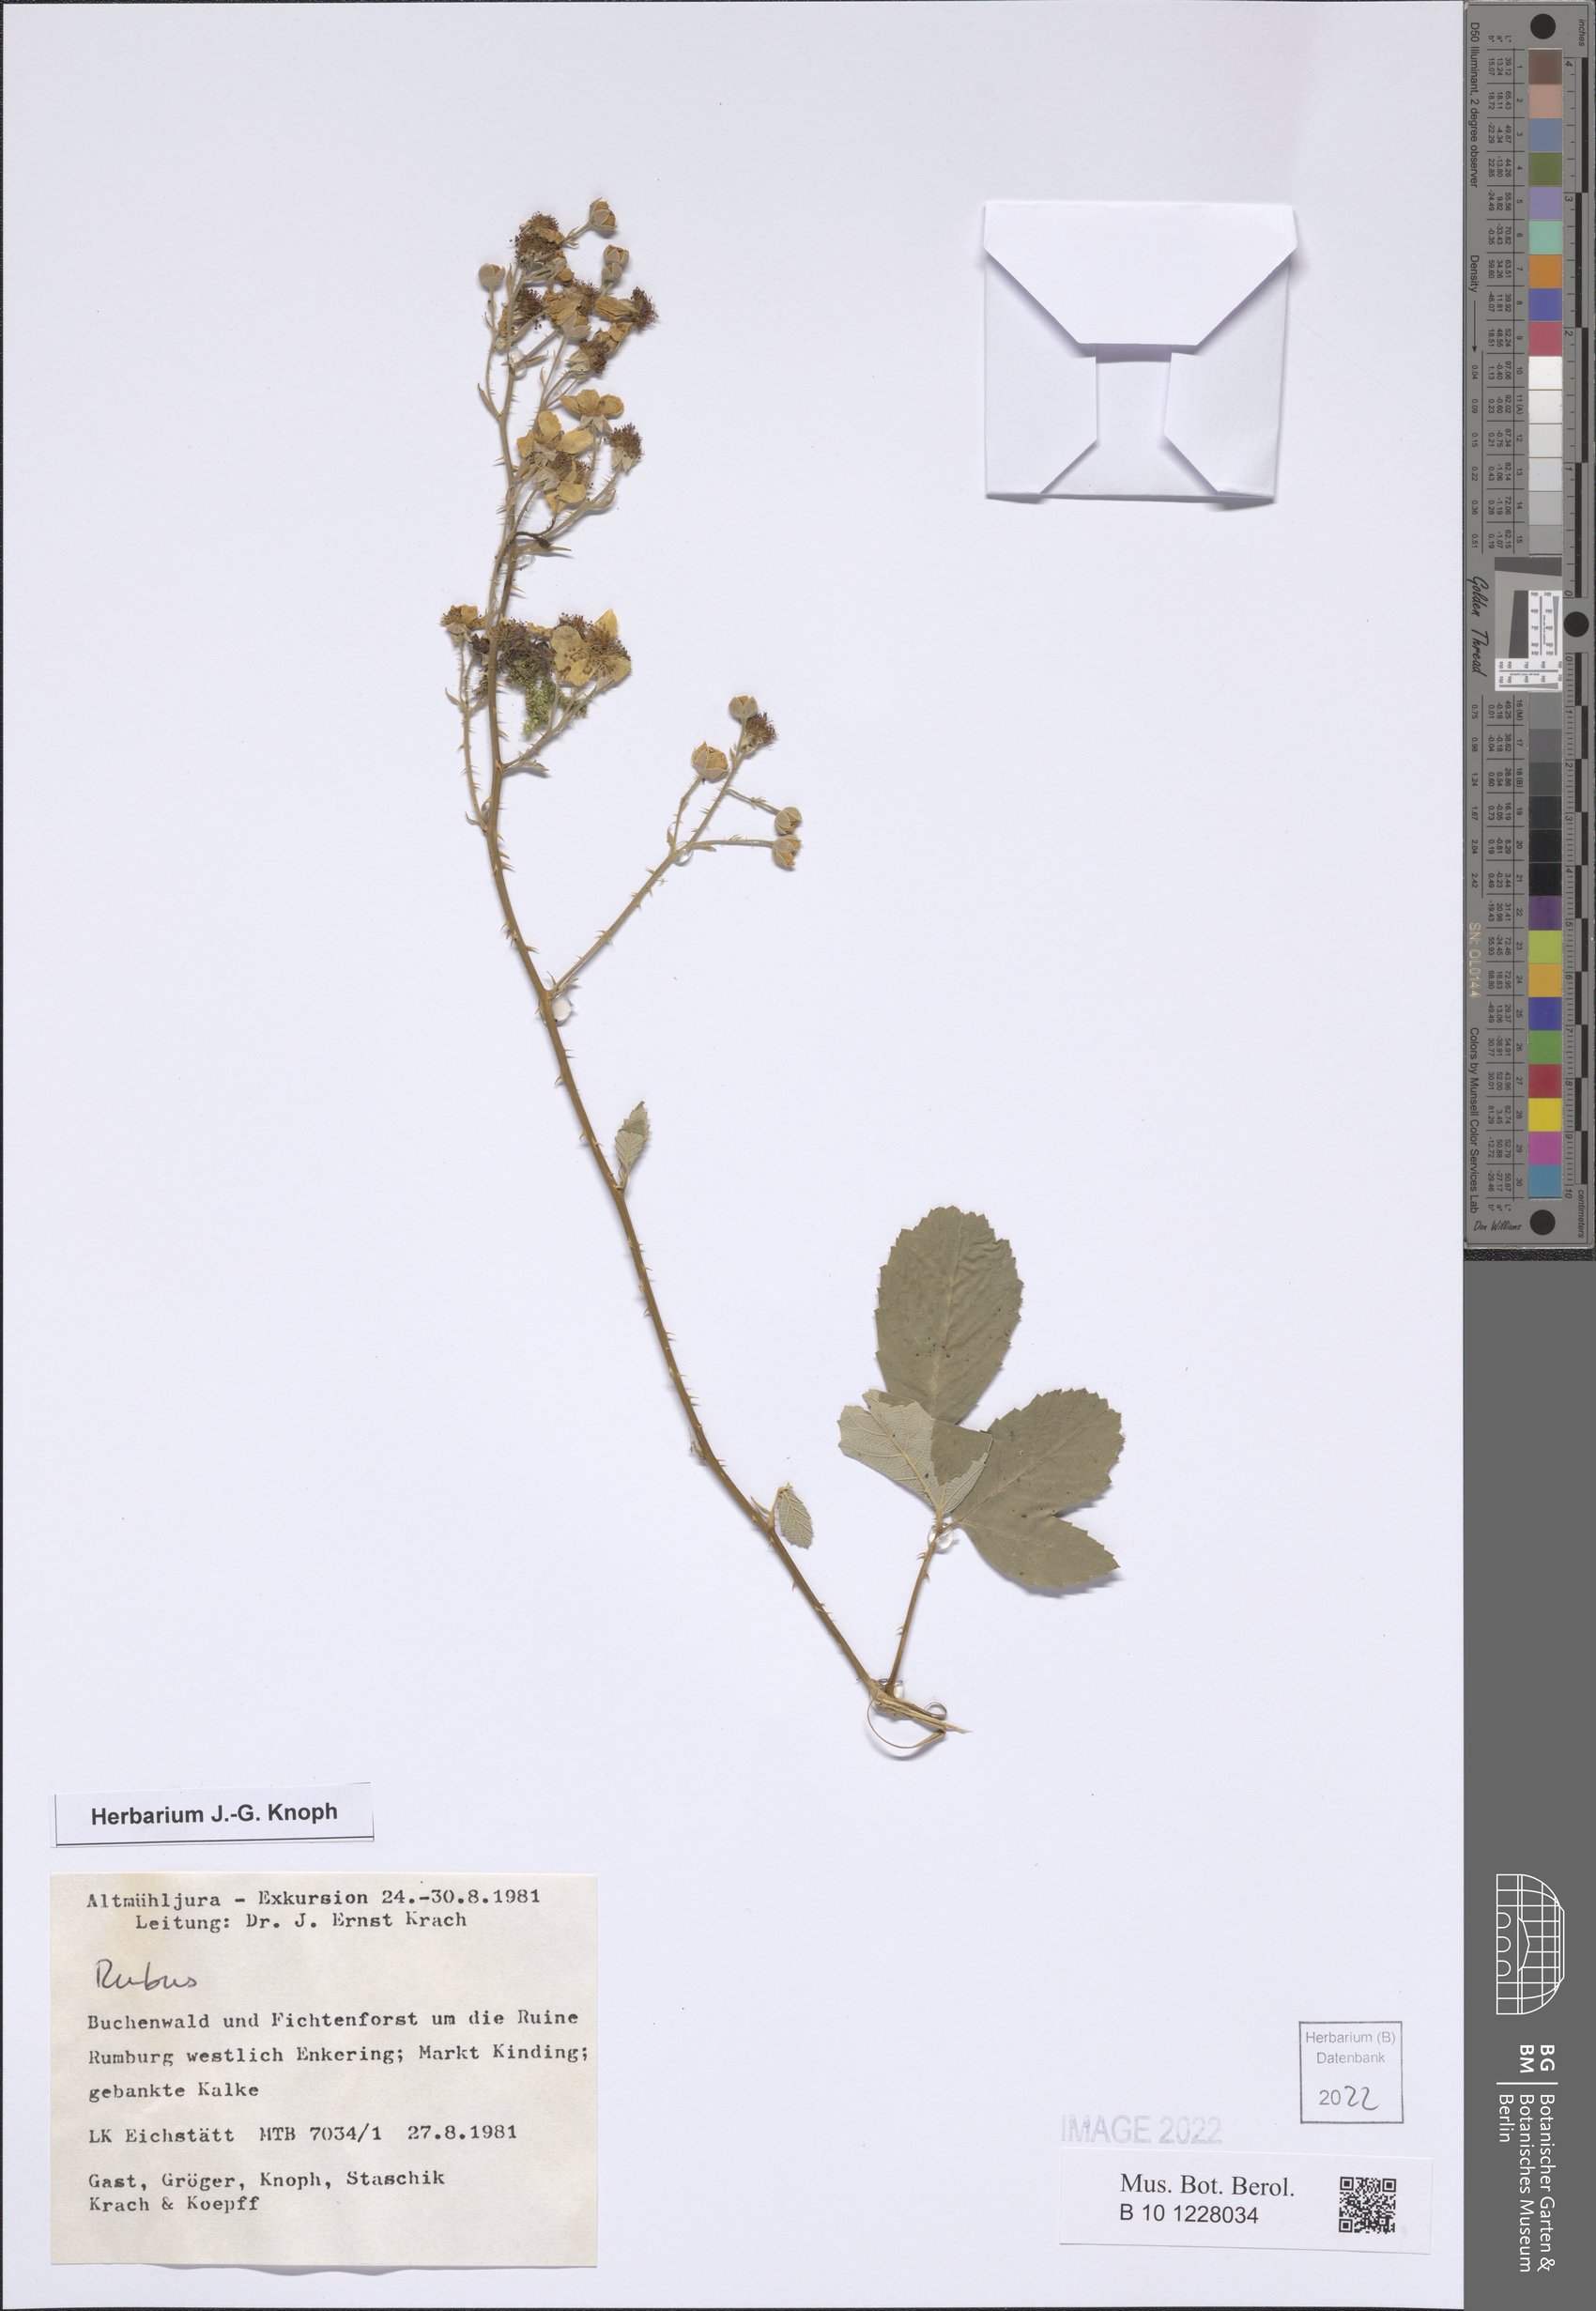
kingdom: Plantae
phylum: Tracheophyta
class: Magnoliopsida
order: Rosales
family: Rosaceae
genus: Rubus
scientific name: Rubus
